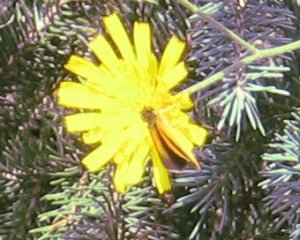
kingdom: Animalia
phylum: Arthropoda
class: Insecta
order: Lepidoptera
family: Hesperiidae
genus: Ancyloxypha
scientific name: Ancyloxypha numitor
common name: Least Skipper
